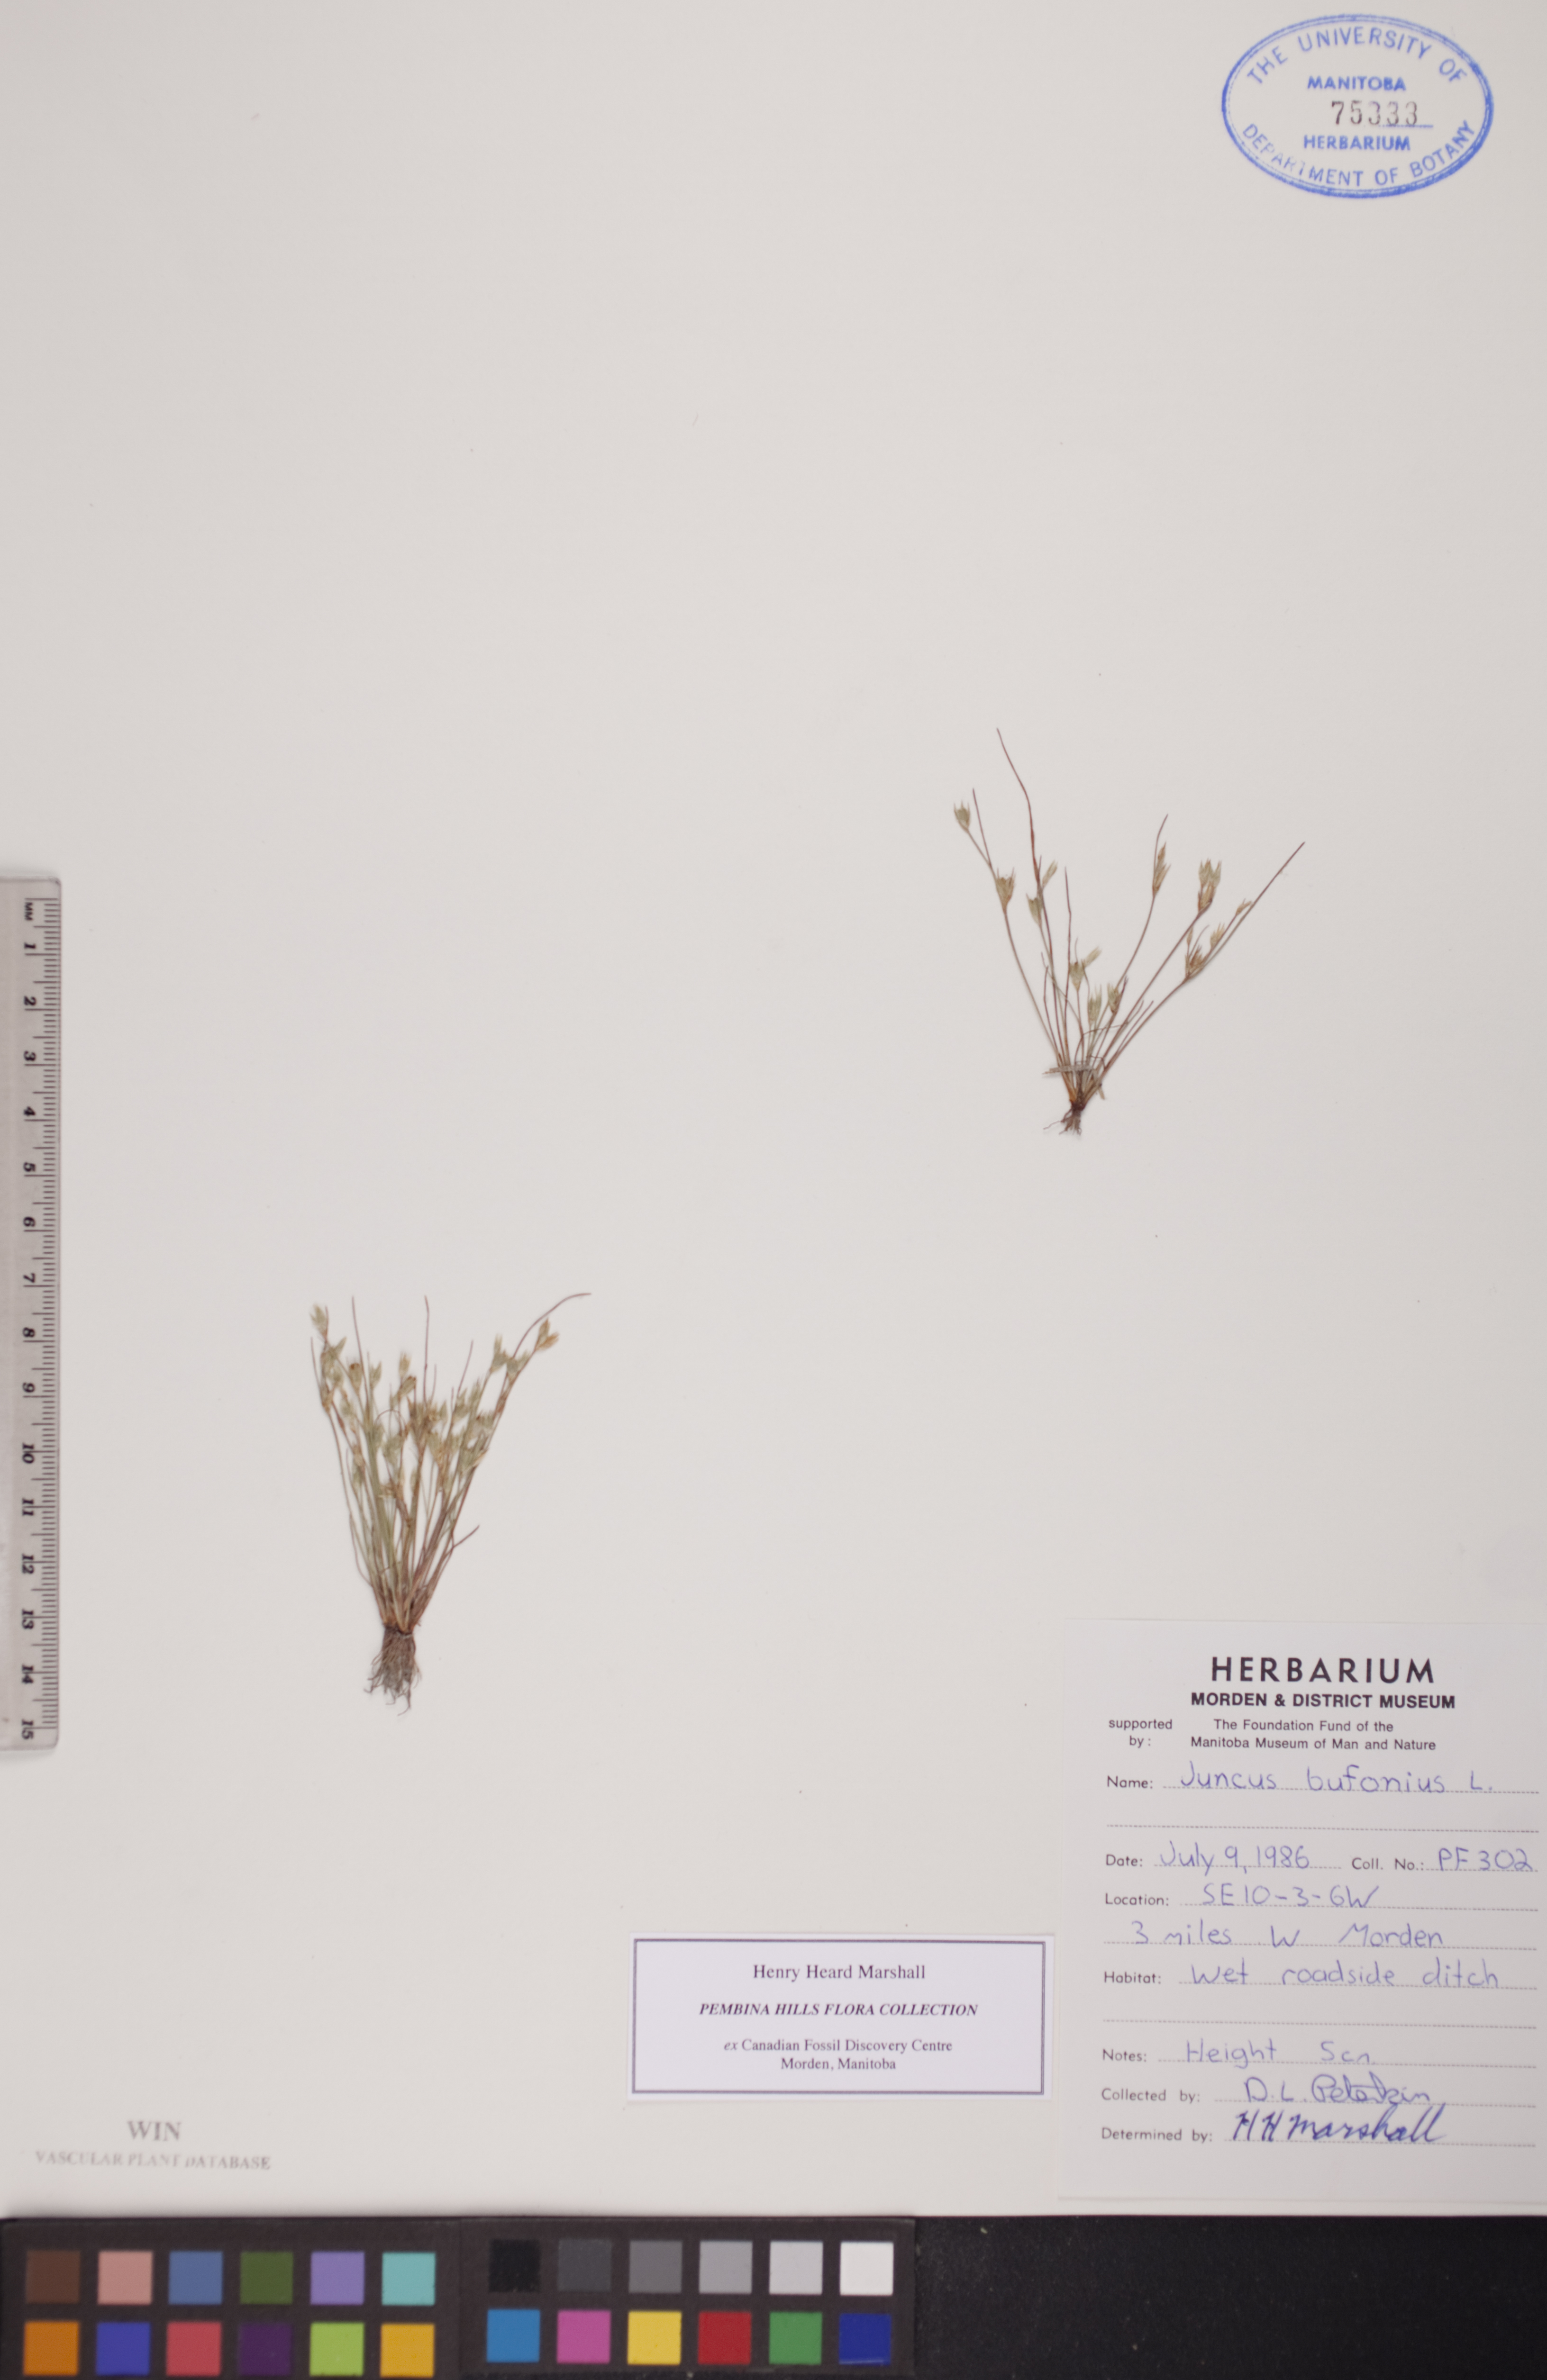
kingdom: Plantae
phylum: Tracheophyta
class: Liliopsida
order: Poales
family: Juncaceae
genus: Juncus
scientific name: Juncus bufonius
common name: Toad rush
